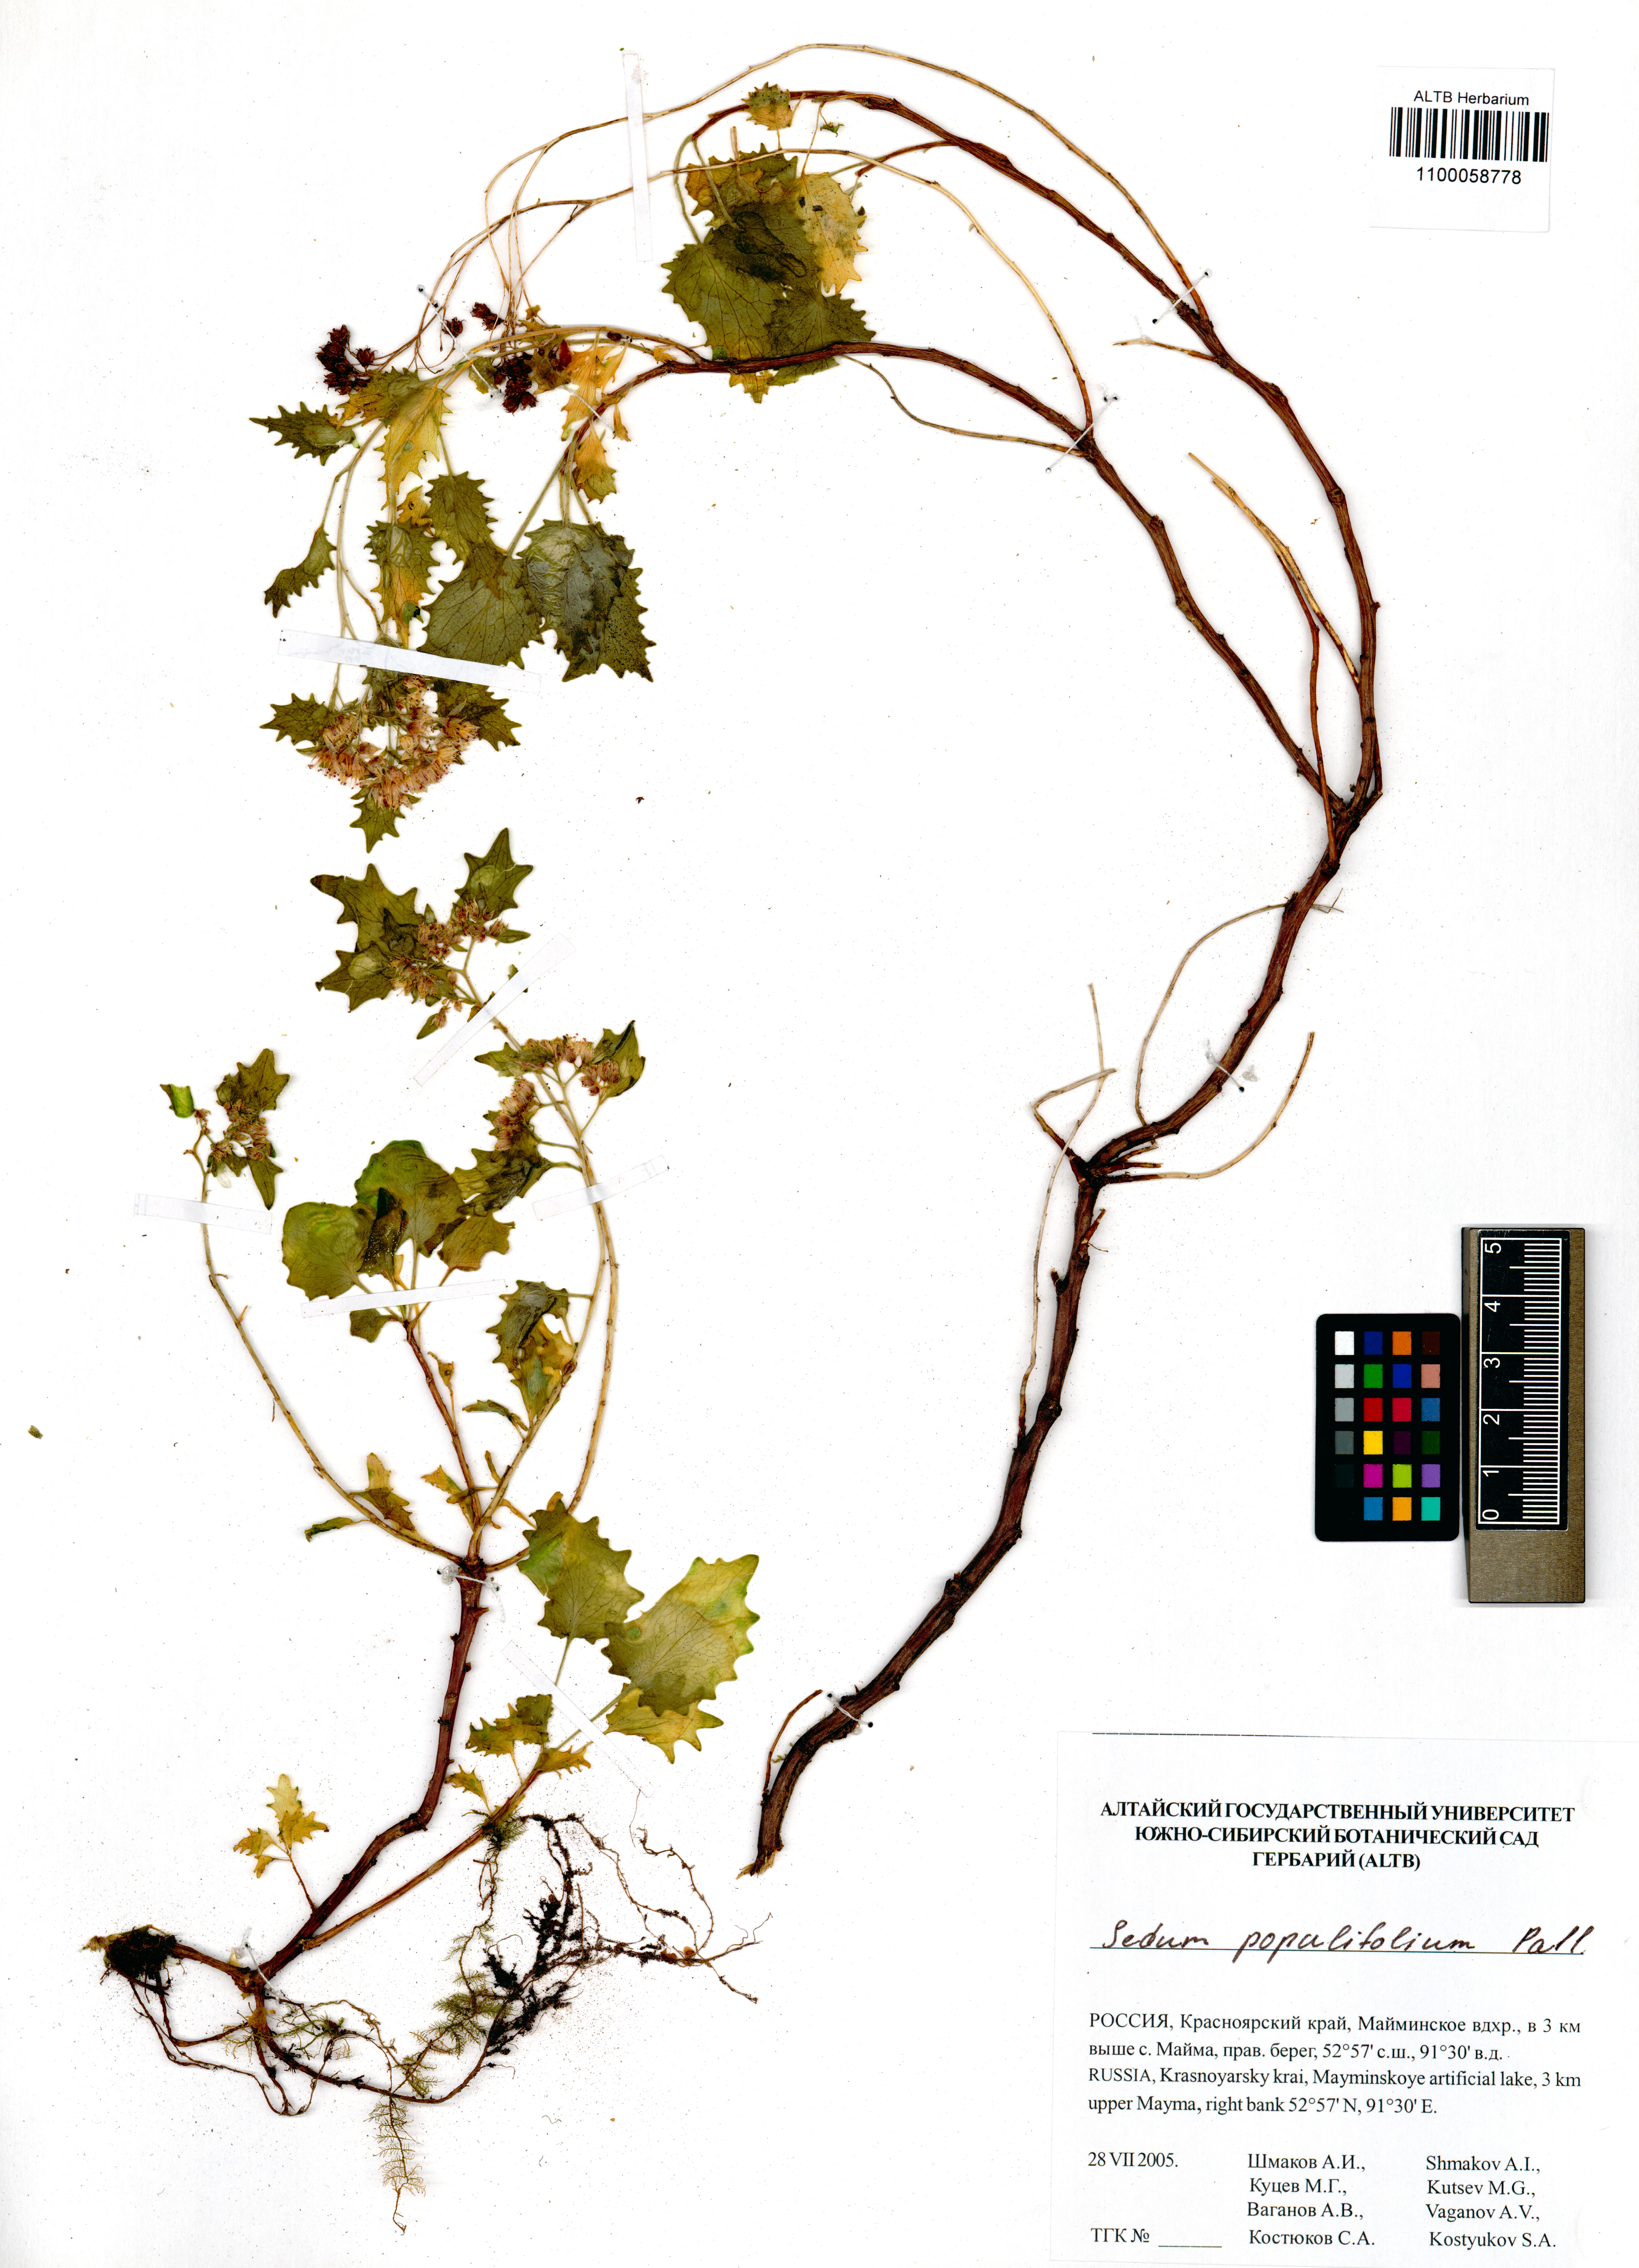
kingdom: Plantae
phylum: Tracheophyta
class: Magnoliopsida
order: Saxifragales
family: Crassulaceae
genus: Hylotelephium
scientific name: Hylotelephium populifolium
